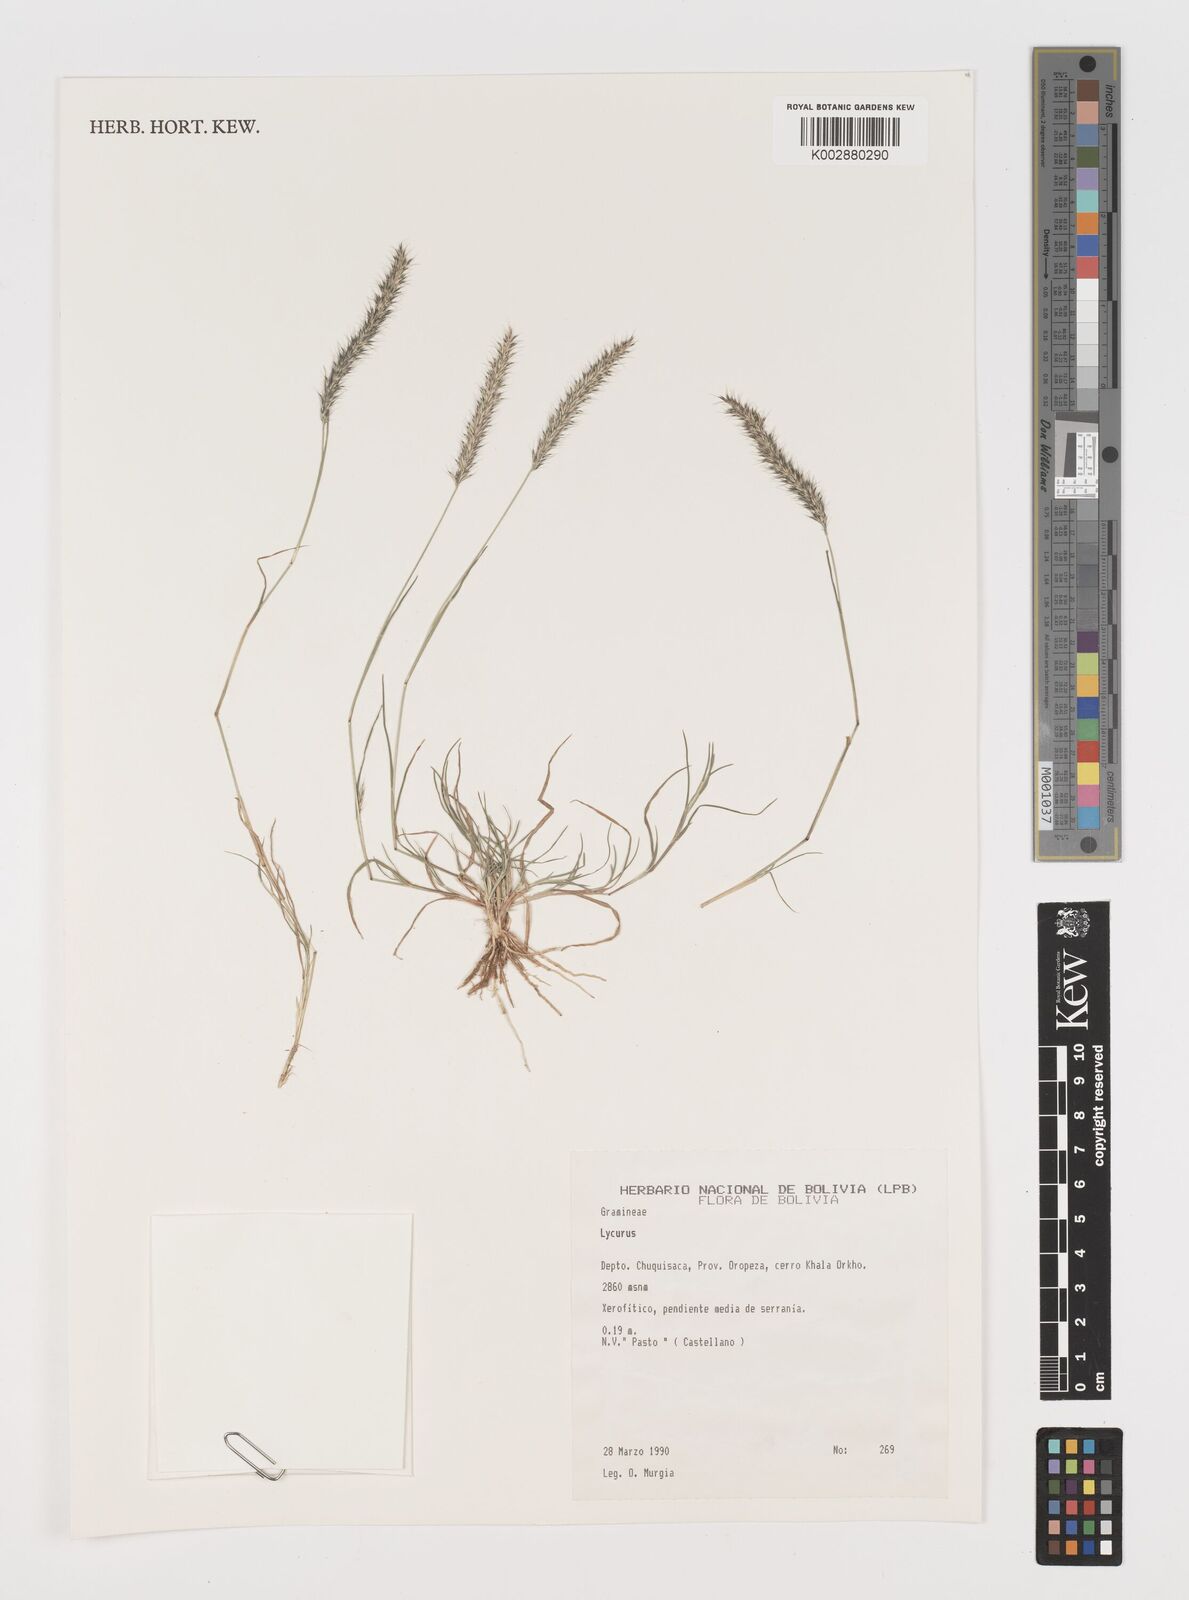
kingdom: Plantae
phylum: Tracheophyta
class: Liliopsida
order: Poales
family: Poaceae
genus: Muhlenbergia
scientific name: Muhlenbergia phleoides
